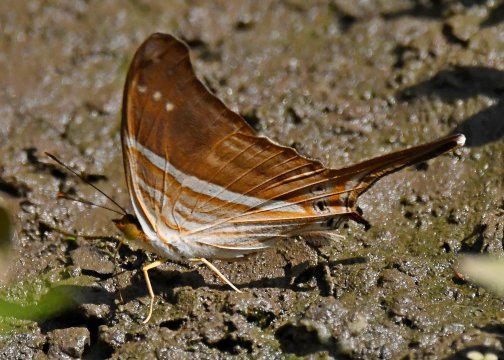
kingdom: Animalia
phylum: Arthropoda
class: Insecta
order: Lepidoptera
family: Nymphalidae
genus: Marpesia
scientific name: Marpesia chiron
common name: Many-banded Daggerwing
